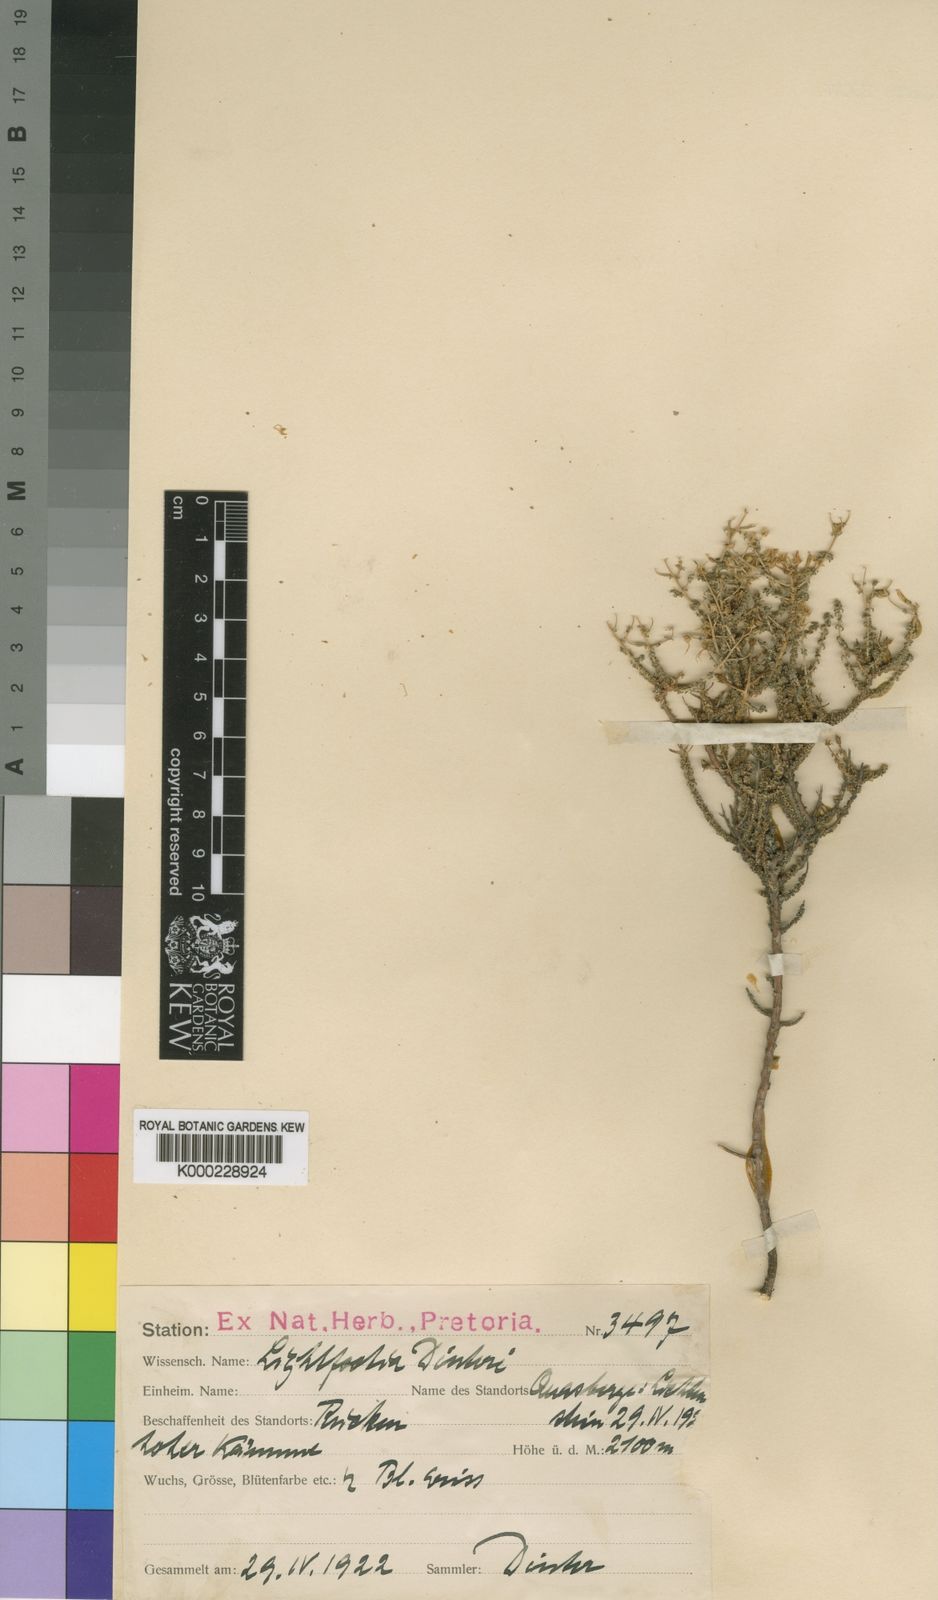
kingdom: Plantae
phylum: Tracheophyta
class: Magnoliopsida
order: Asterales
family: Campanulaceae
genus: Wahlenbergia
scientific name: Wahlenbergia nodosa
